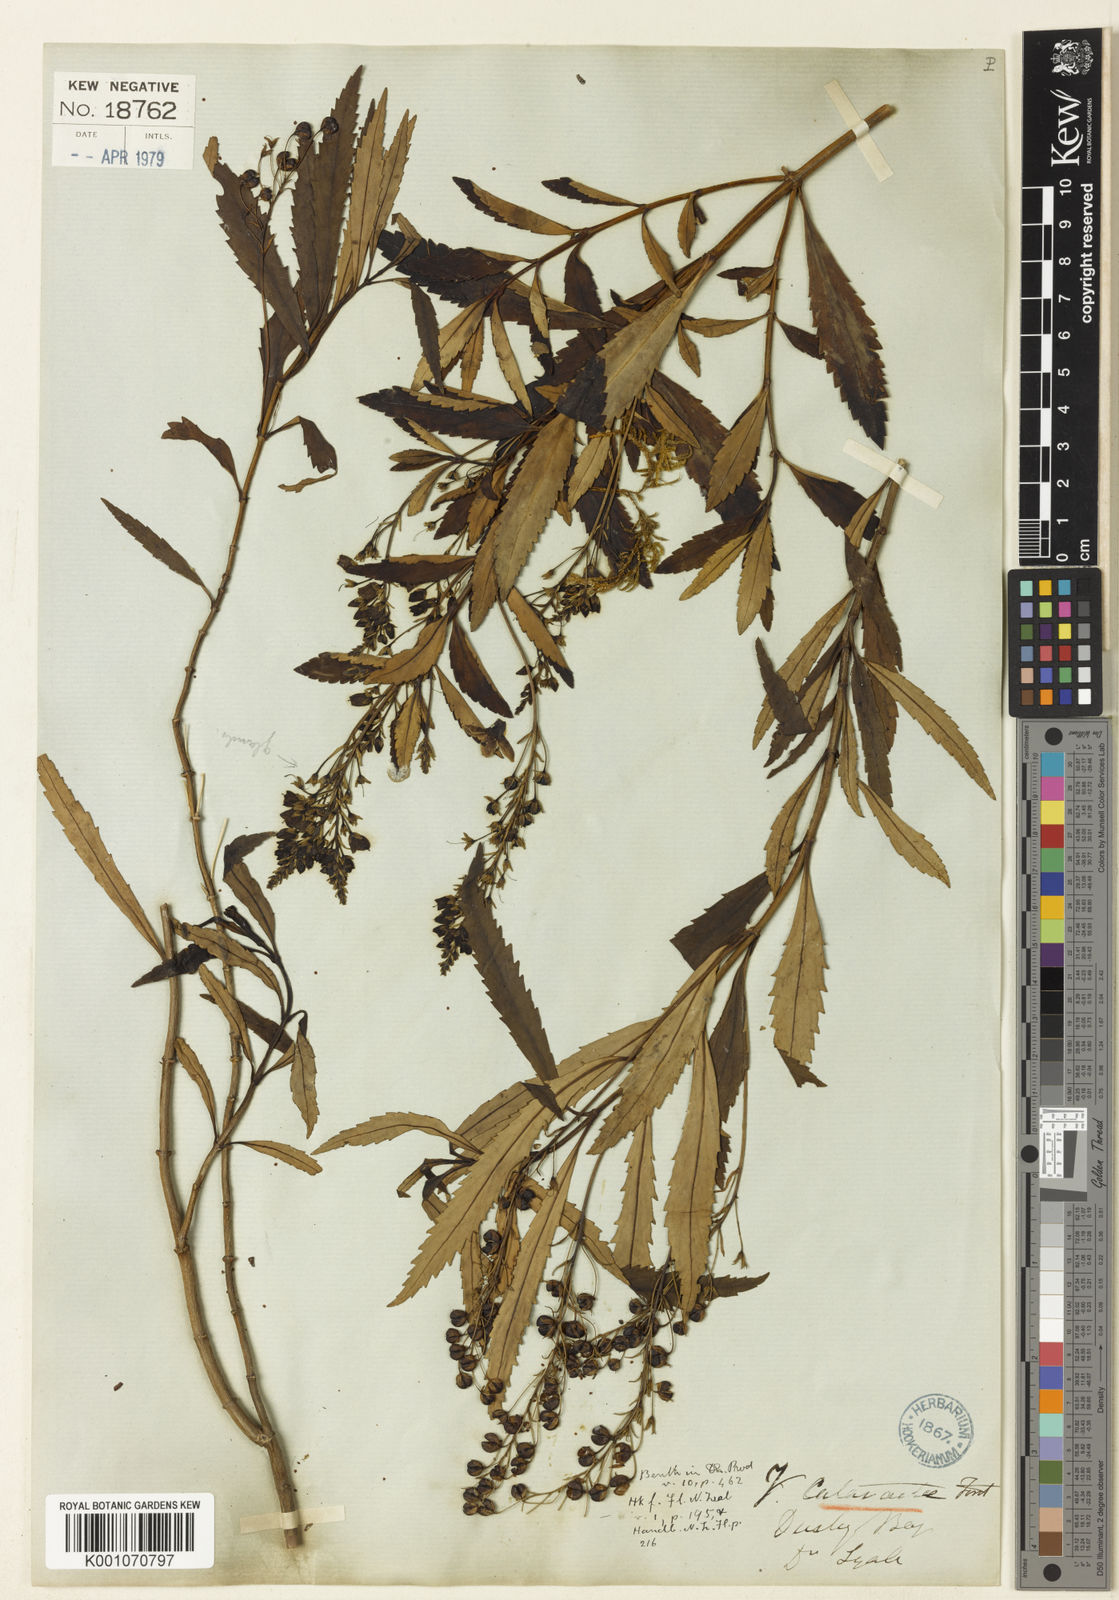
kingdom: Plantae
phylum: Tracheophyta
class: Magnoliopsida
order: Lamiales
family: Plantaginaceae
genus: Veronica
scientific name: Veronica catarractae
